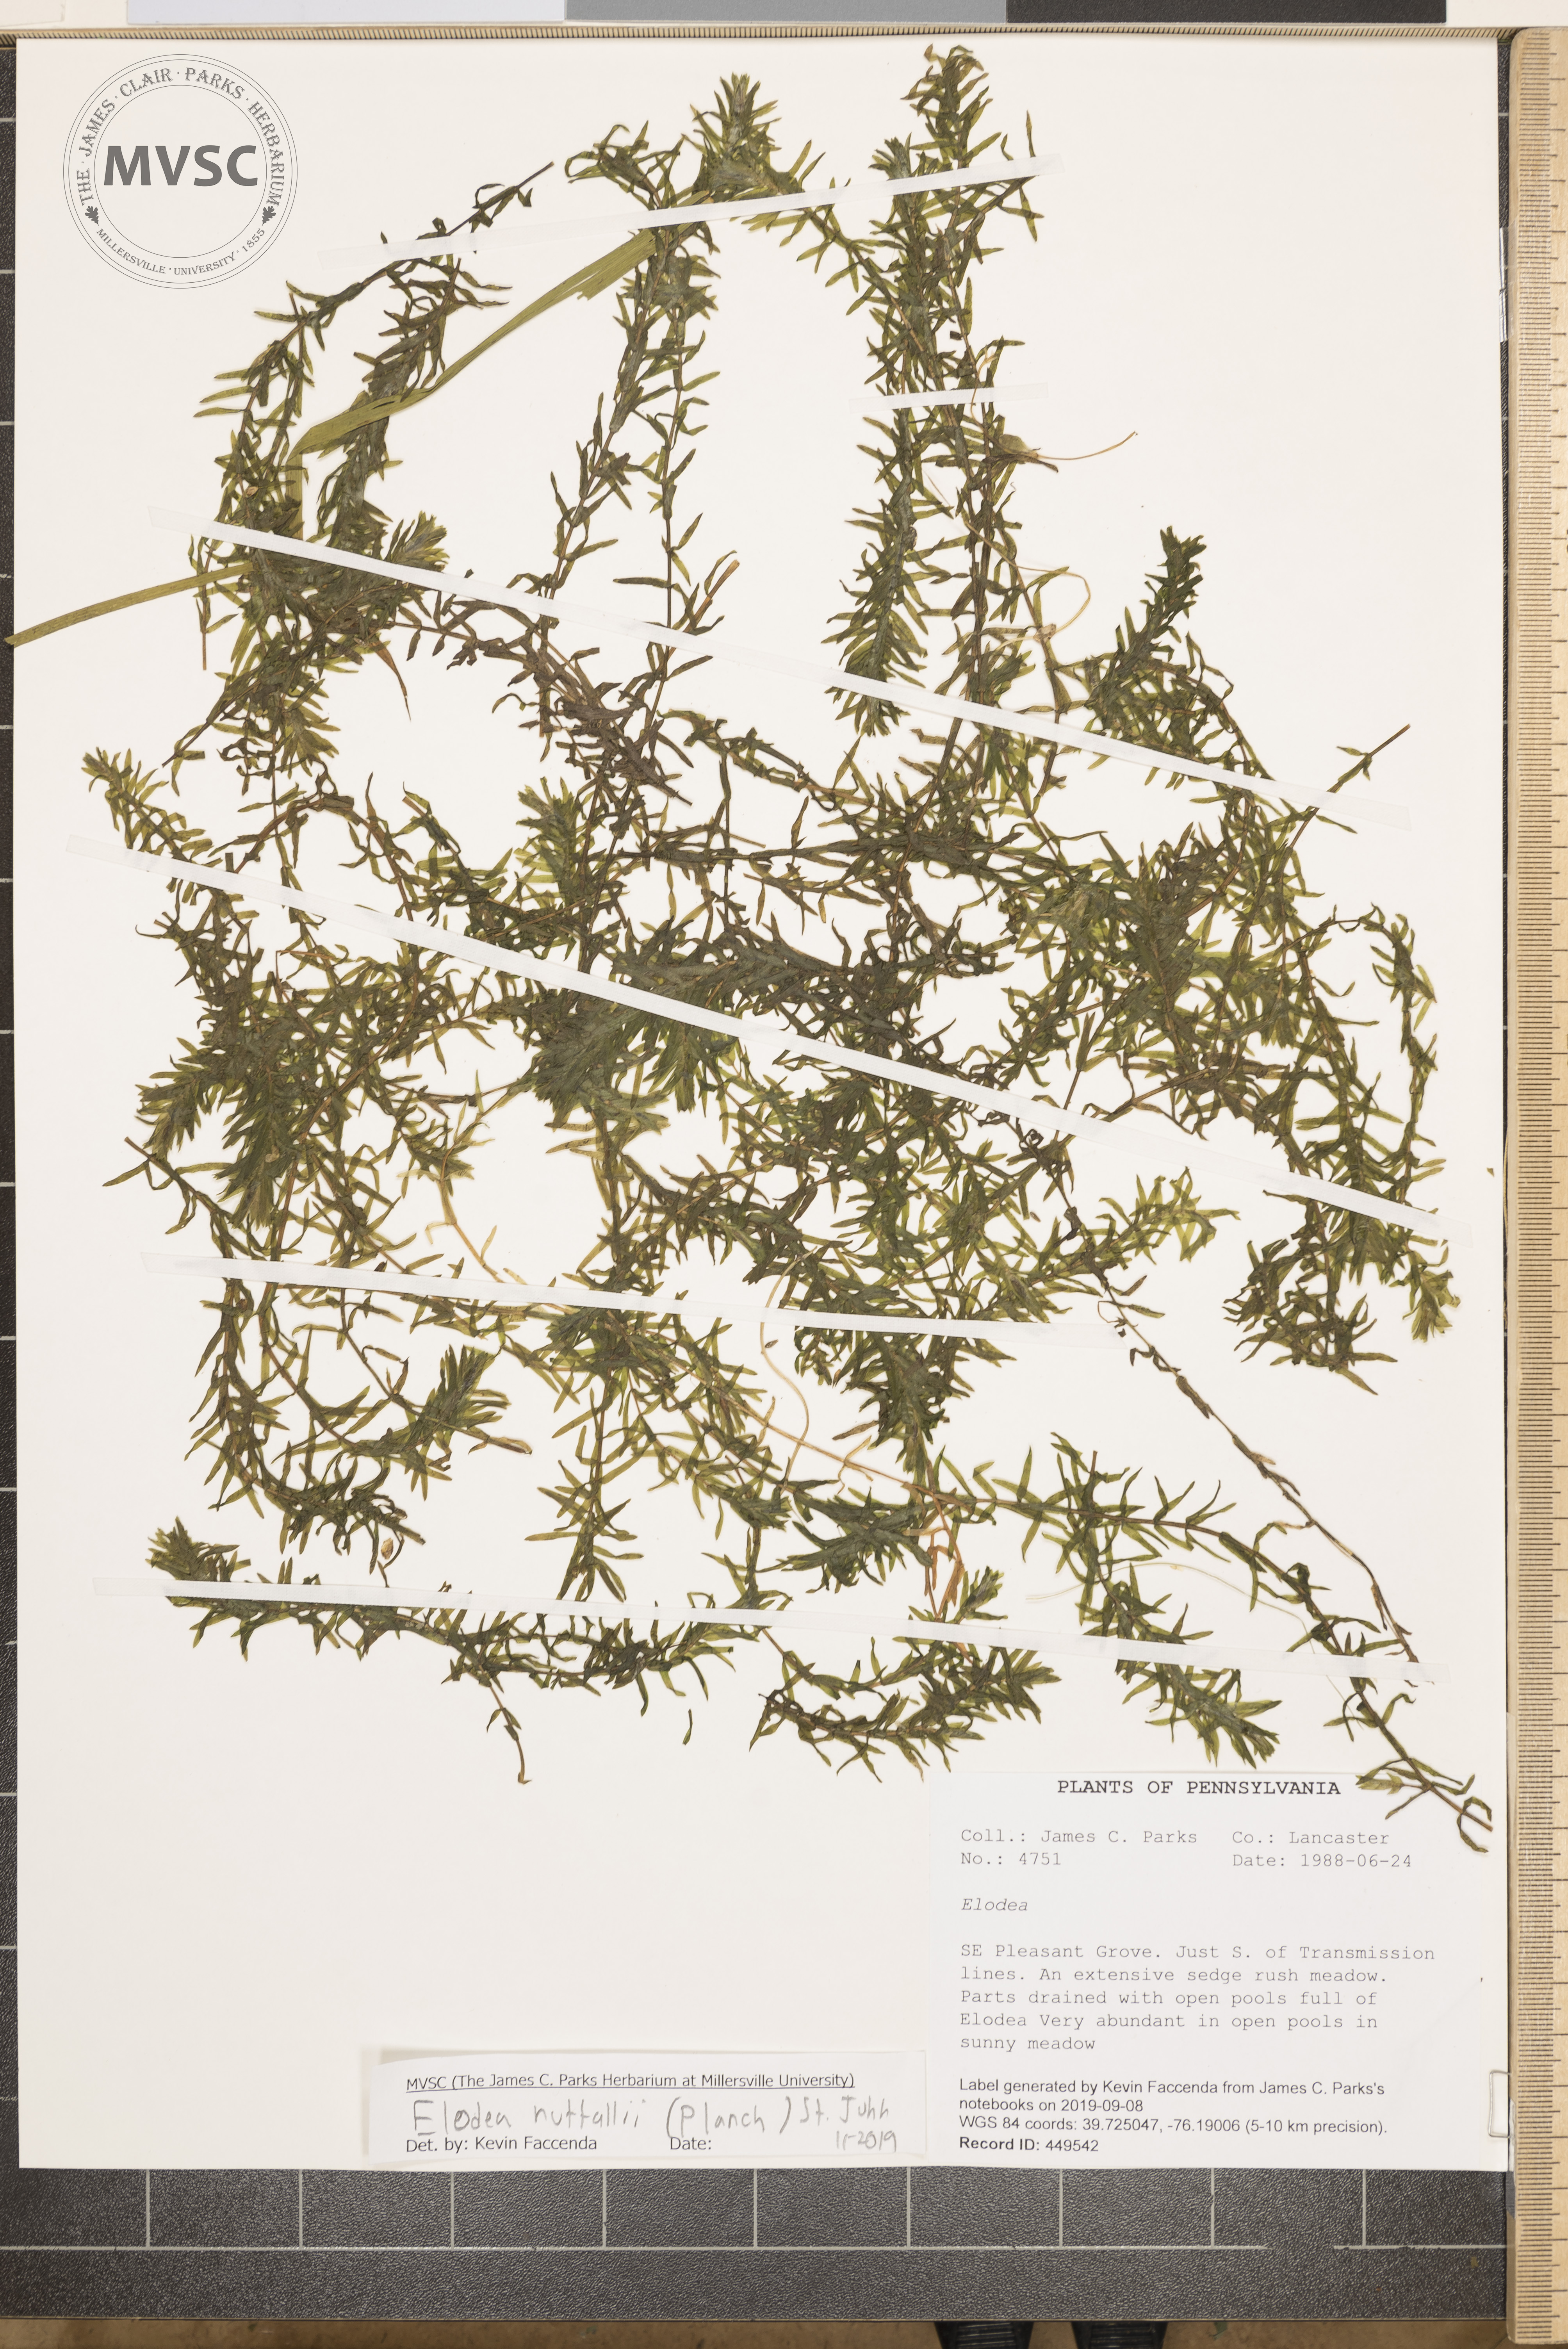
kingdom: Plantae
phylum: Tracheophyta
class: Liliopsida
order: Alismatales
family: Hydrocharitaceae
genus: Elodea
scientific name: Elodea nuttallii
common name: Nuttall's waterweed
